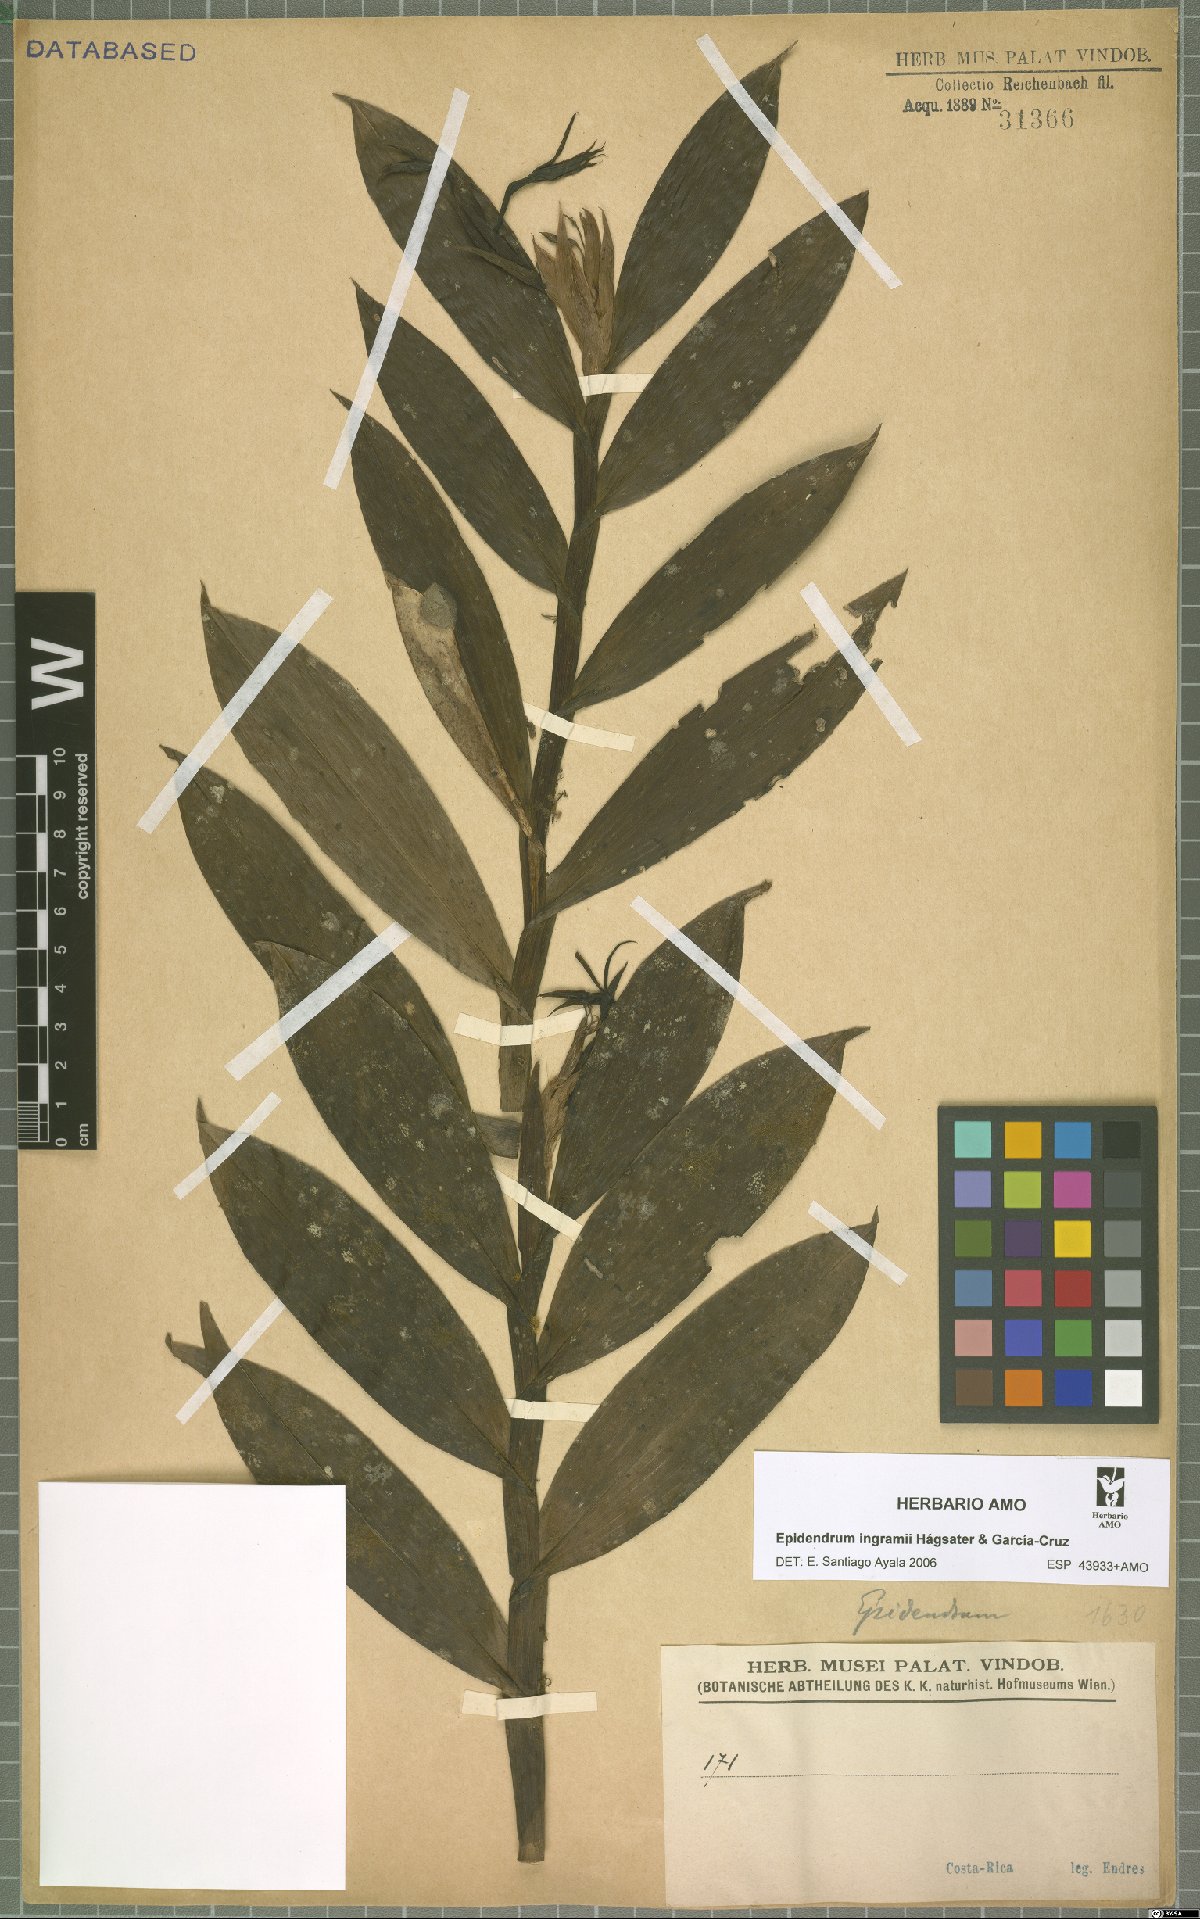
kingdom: Plantae
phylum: Tracheophyta
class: Liliopsida
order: Asparagales
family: Orchidaceae
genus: Epidendrum
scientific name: Epidendrum ingramii
